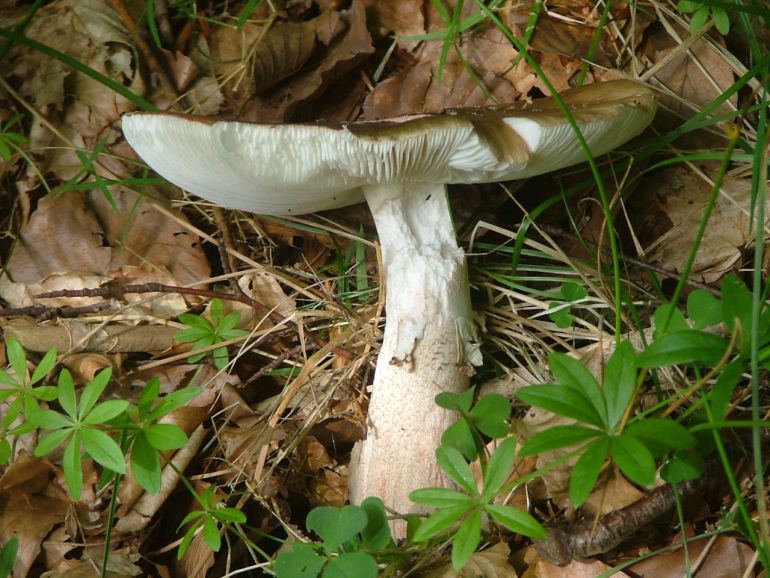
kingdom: Fungi
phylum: Basidiomycota
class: Agaricomycetes
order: Agaricales
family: Amanitaceae
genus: Amanita
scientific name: Amanita rubescens
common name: rødmende fluesvamp
